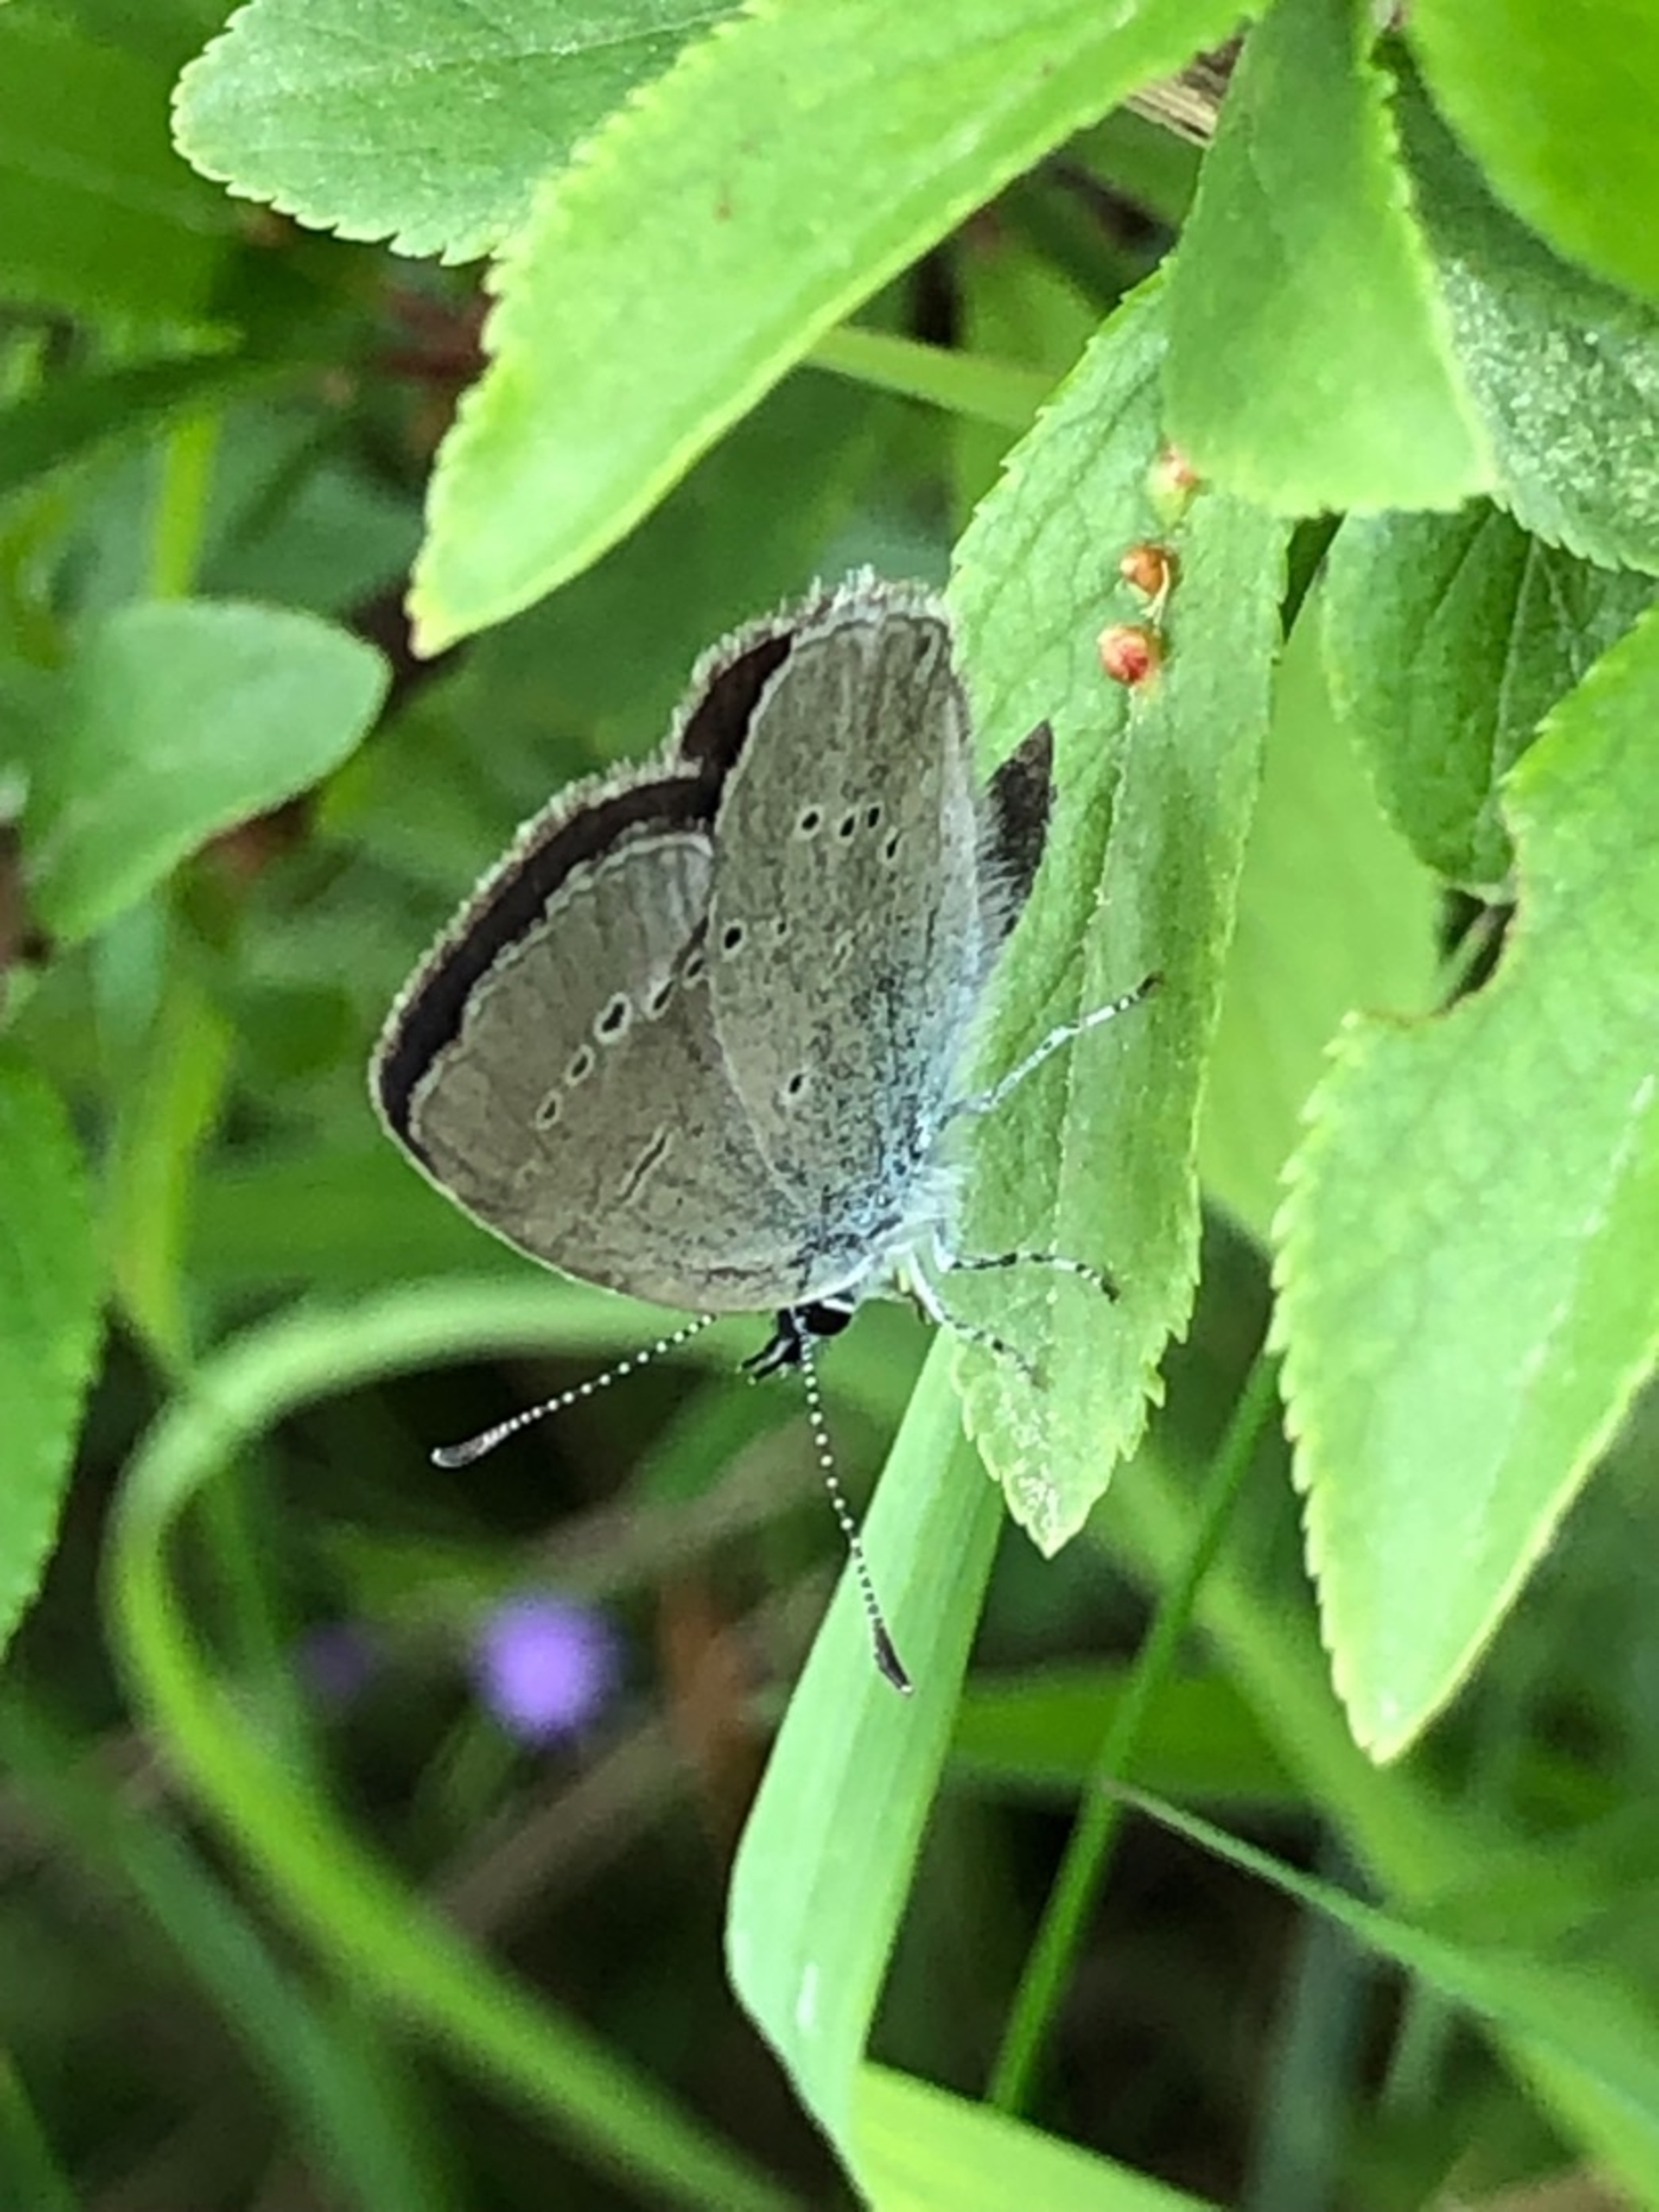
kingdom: Animalia
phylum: Arthropoda
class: Insecta
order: Lepidoptera
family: Lycaenidae
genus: Celastrina
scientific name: Celastrina argiolus
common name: Skovblåfugl
